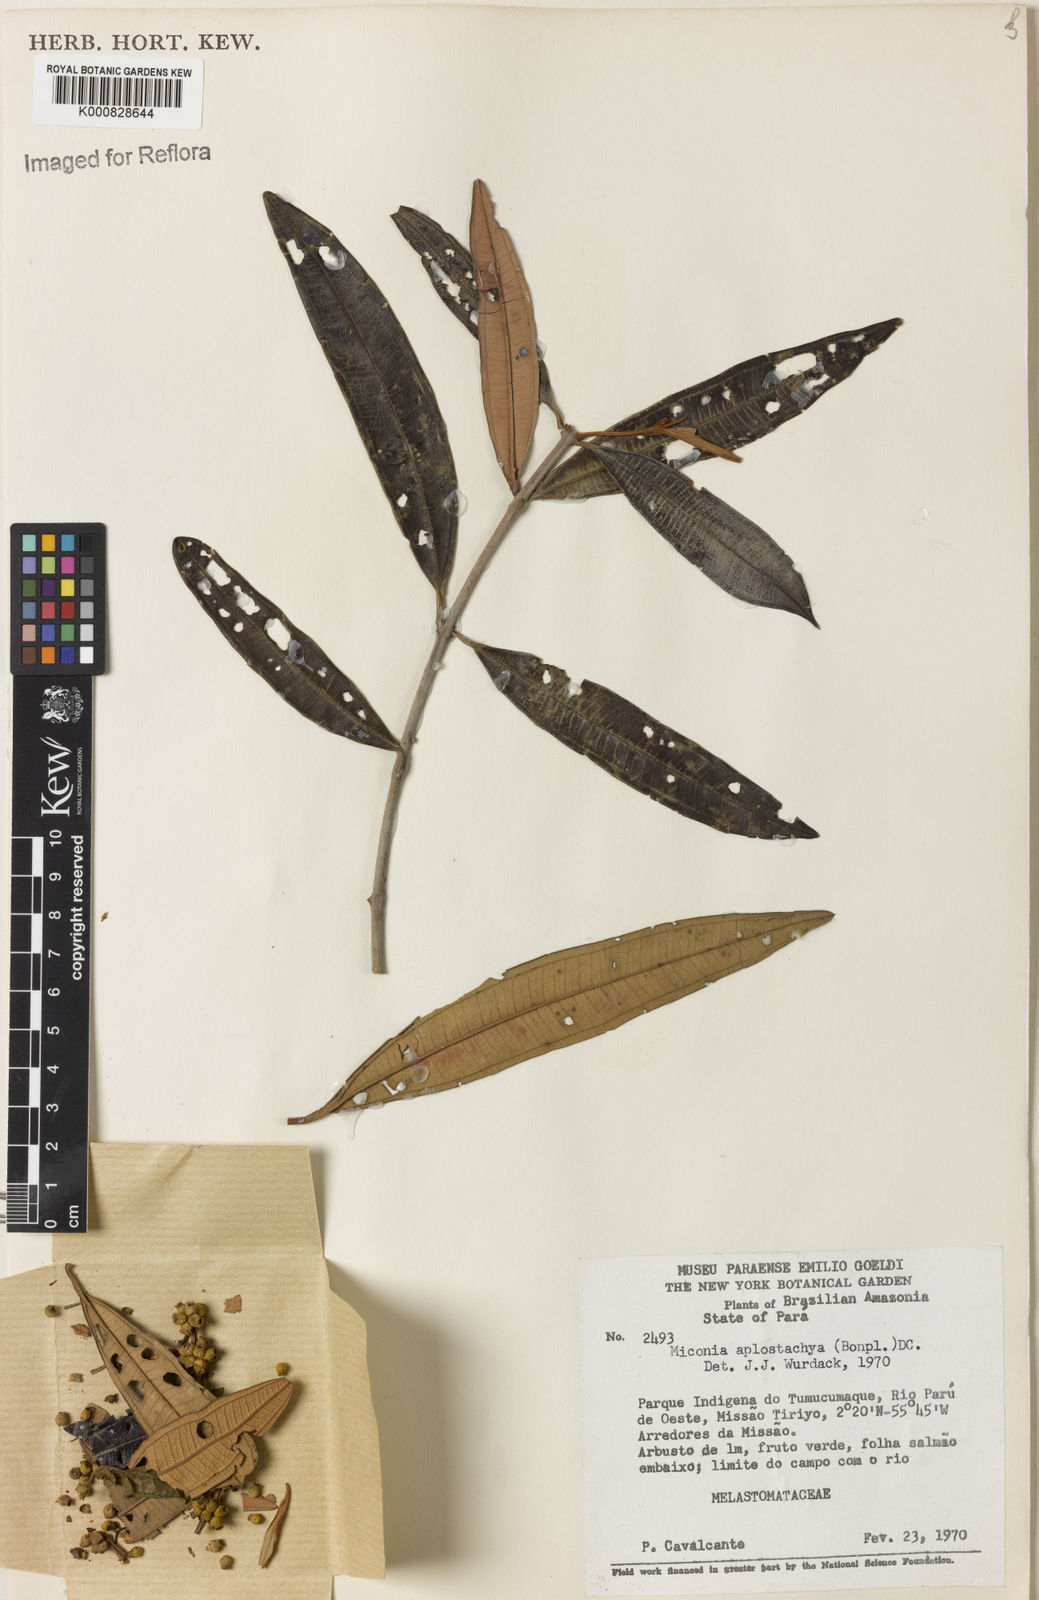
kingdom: Plantae
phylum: Tracheophyta
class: Magnoliopsida
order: Myrtales
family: Melastomataceae
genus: Miconia
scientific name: Miconia aplostachya
